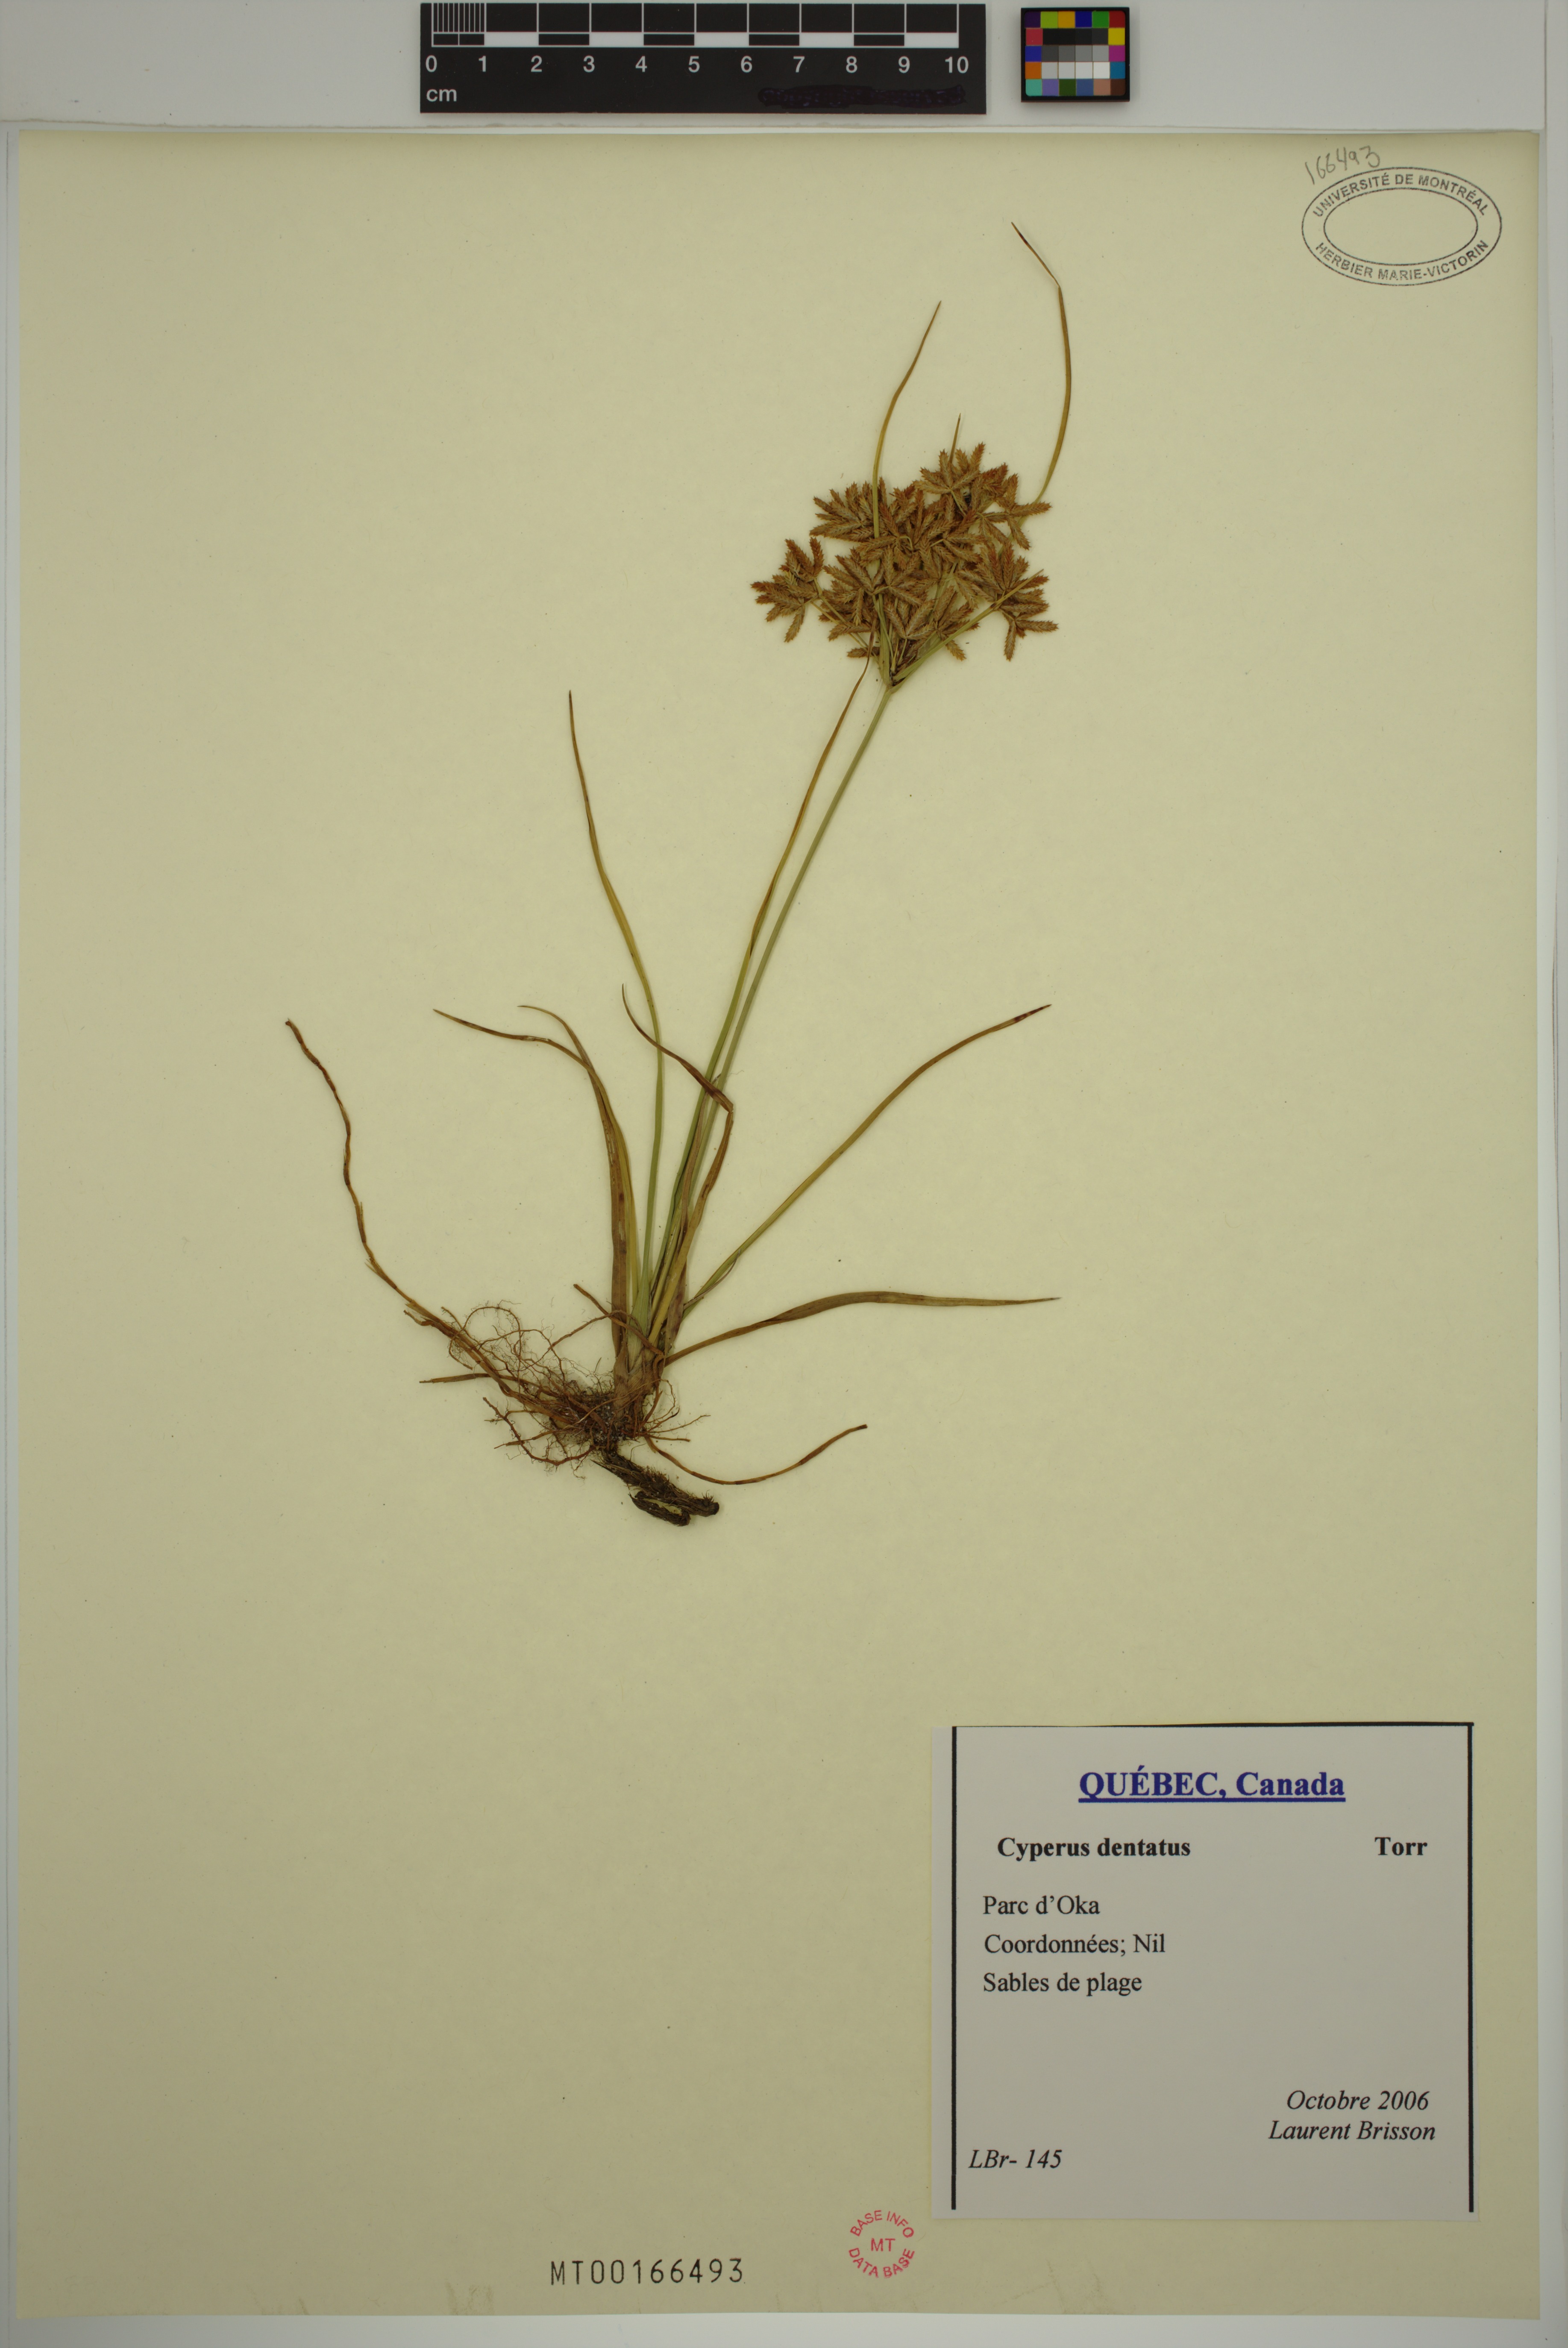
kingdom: Plantae
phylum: Tracheophyta
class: Liliopsida
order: Poales
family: Cyperaceae
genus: Cyperus
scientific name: Cyperus dentatus
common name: Dentate umbrella sedge
